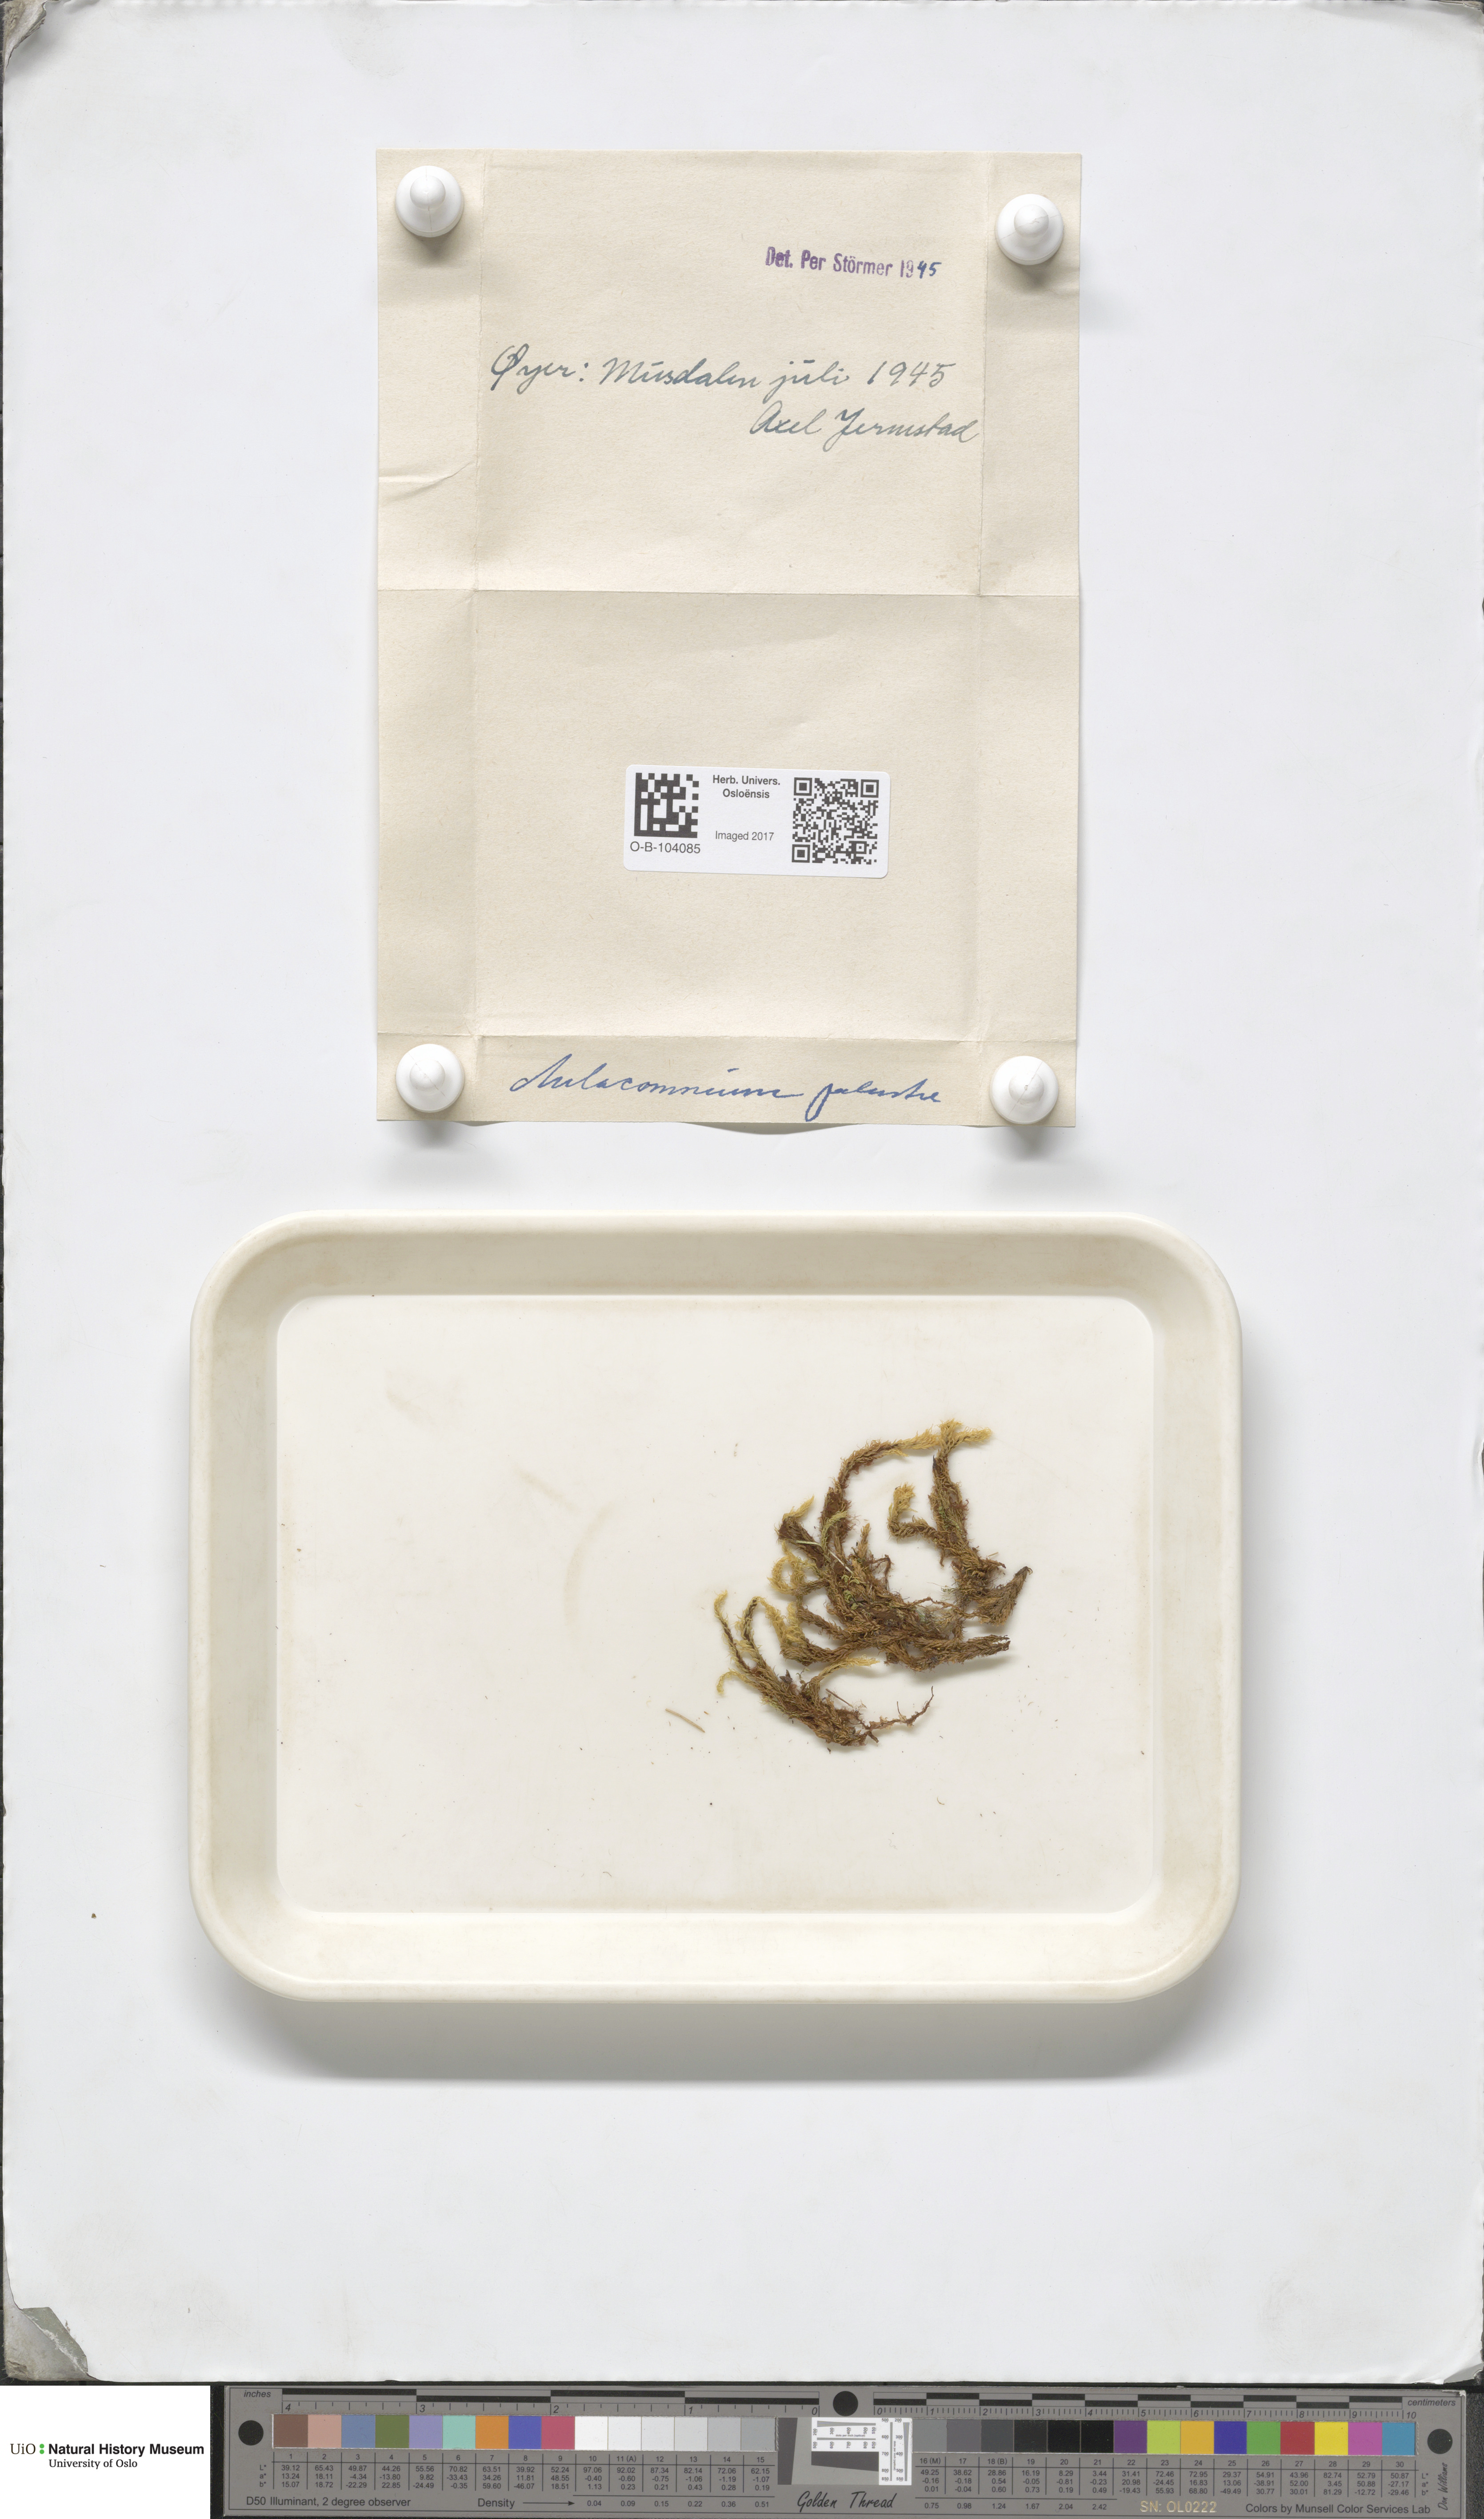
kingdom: Plantae
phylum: Bryophyta
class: Bryopsida
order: Aulacomniales
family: Aulacomniaceae
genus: Aulacomnium
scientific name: Aulacomnium palustre
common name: Bog groove-moss
